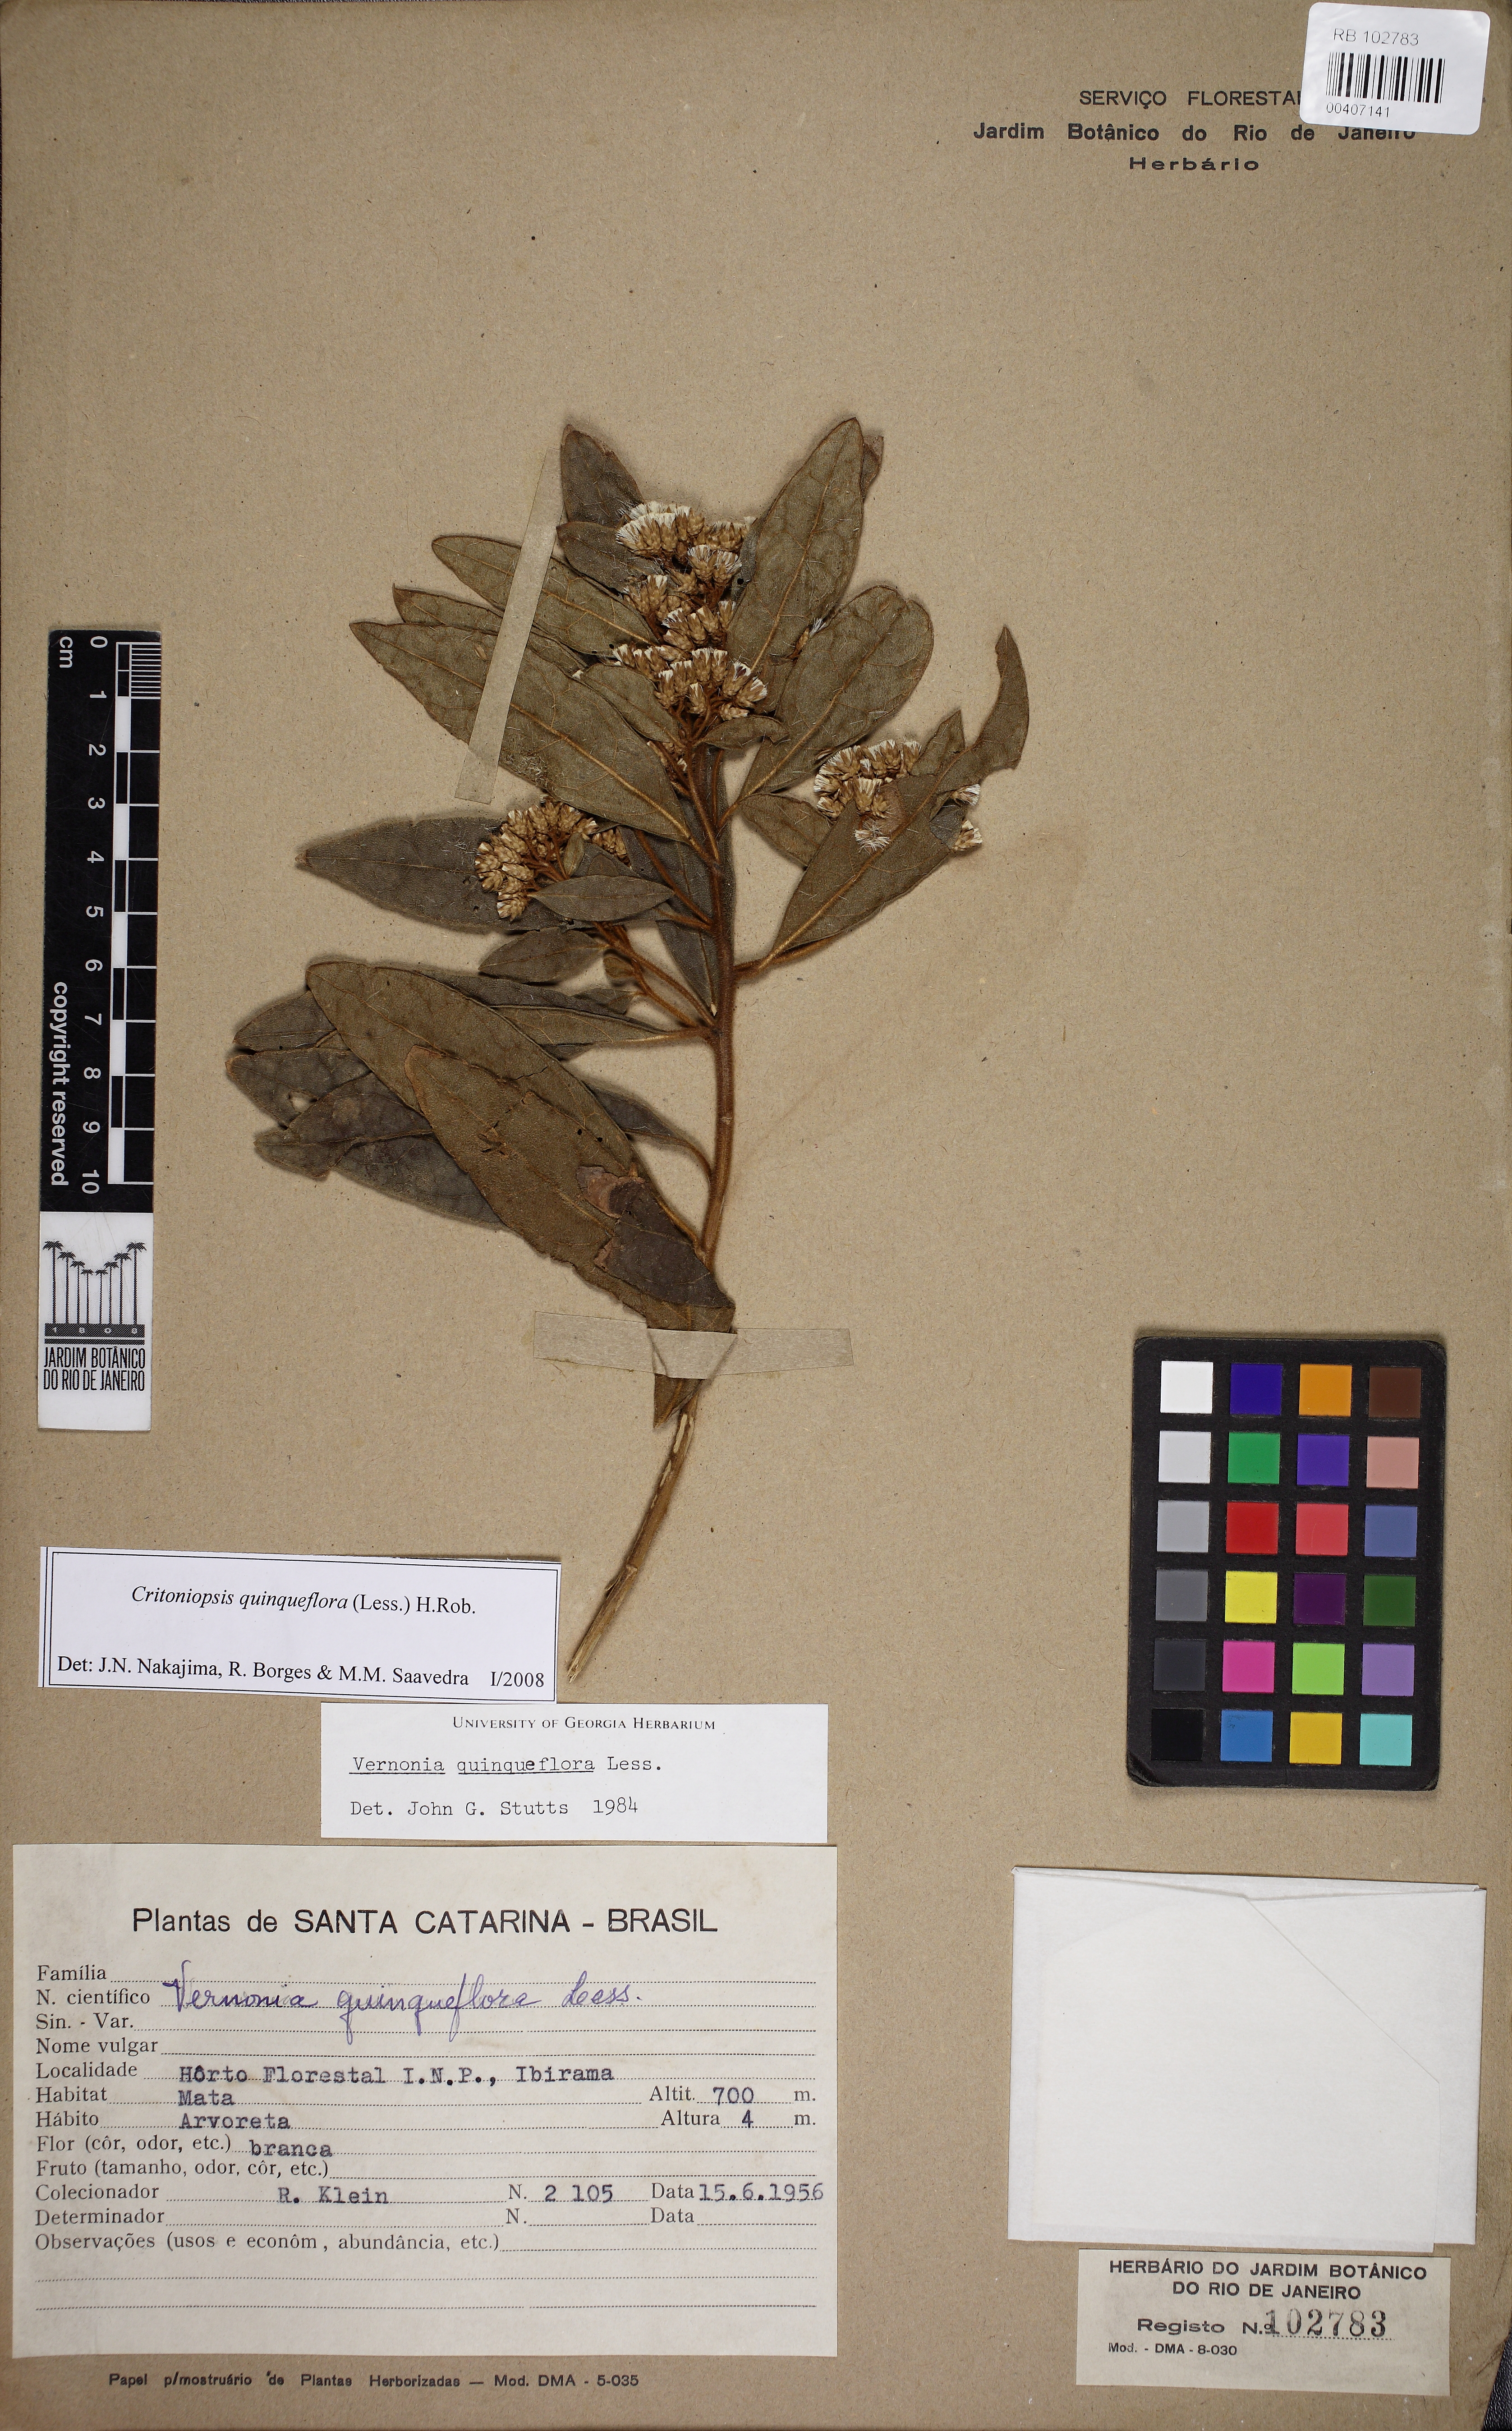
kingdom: Plantae
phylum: Tracheophyta
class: Magnoliopsida
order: Asterales
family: Asteraceae
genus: Critoniopsis
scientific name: Critoniopsis quinqueflora
